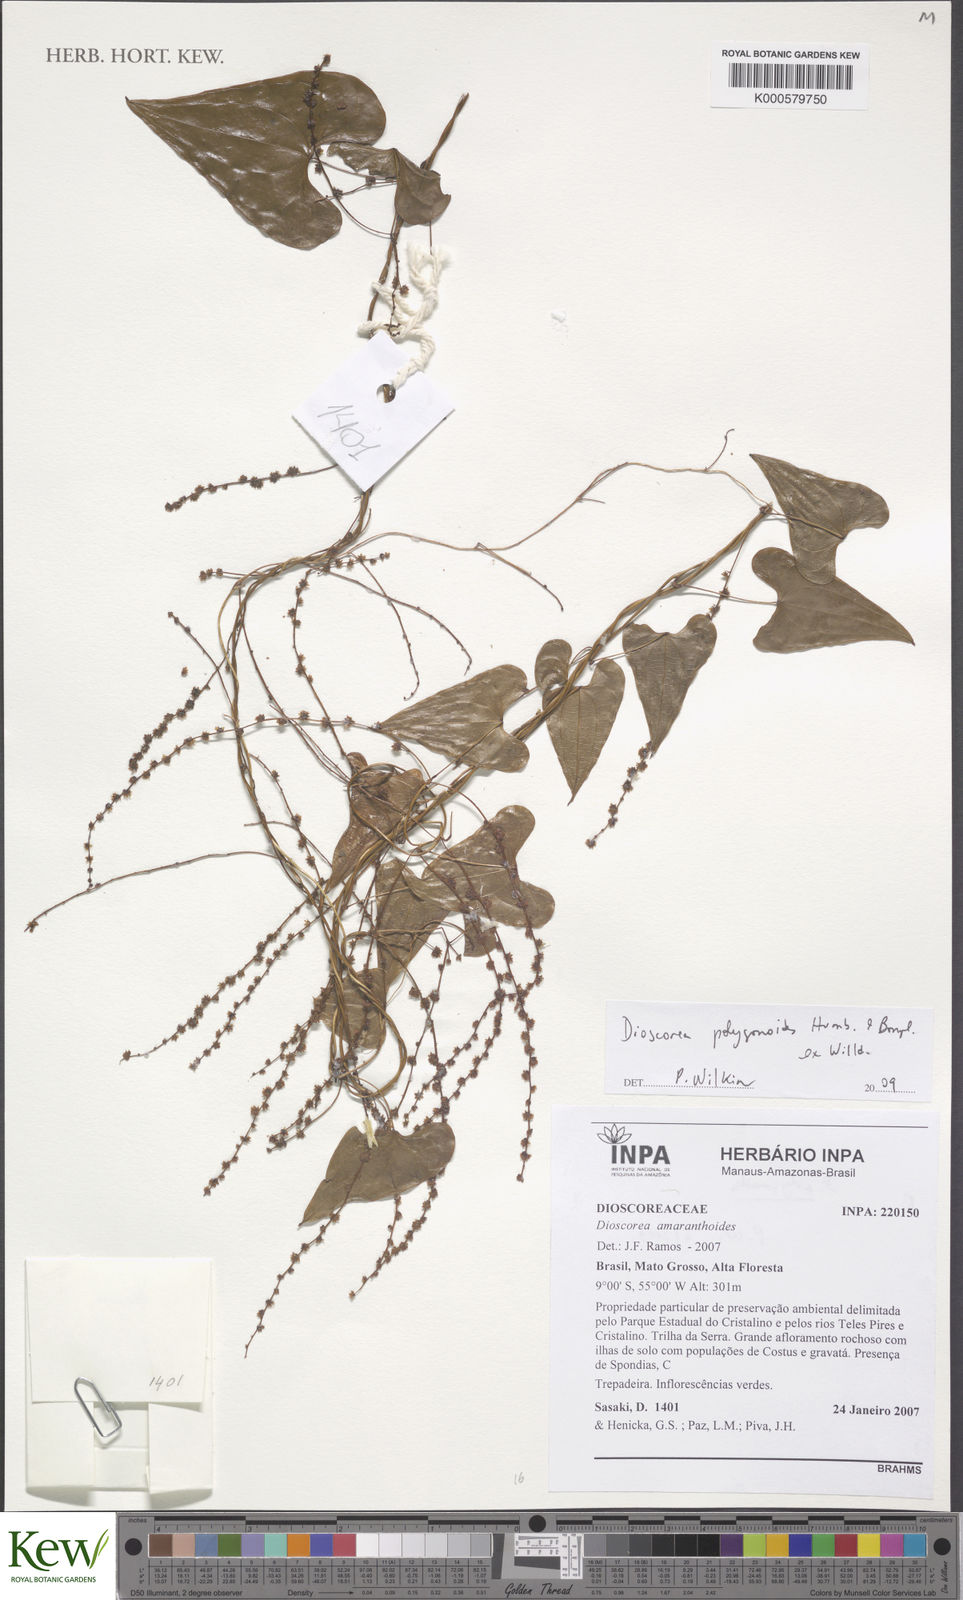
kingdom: Plantae
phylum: Tracheophyta
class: Liliopsida
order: Dioscoreales
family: Dioscoreaceae
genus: Dioscorea
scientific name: Dioscorea marginata
